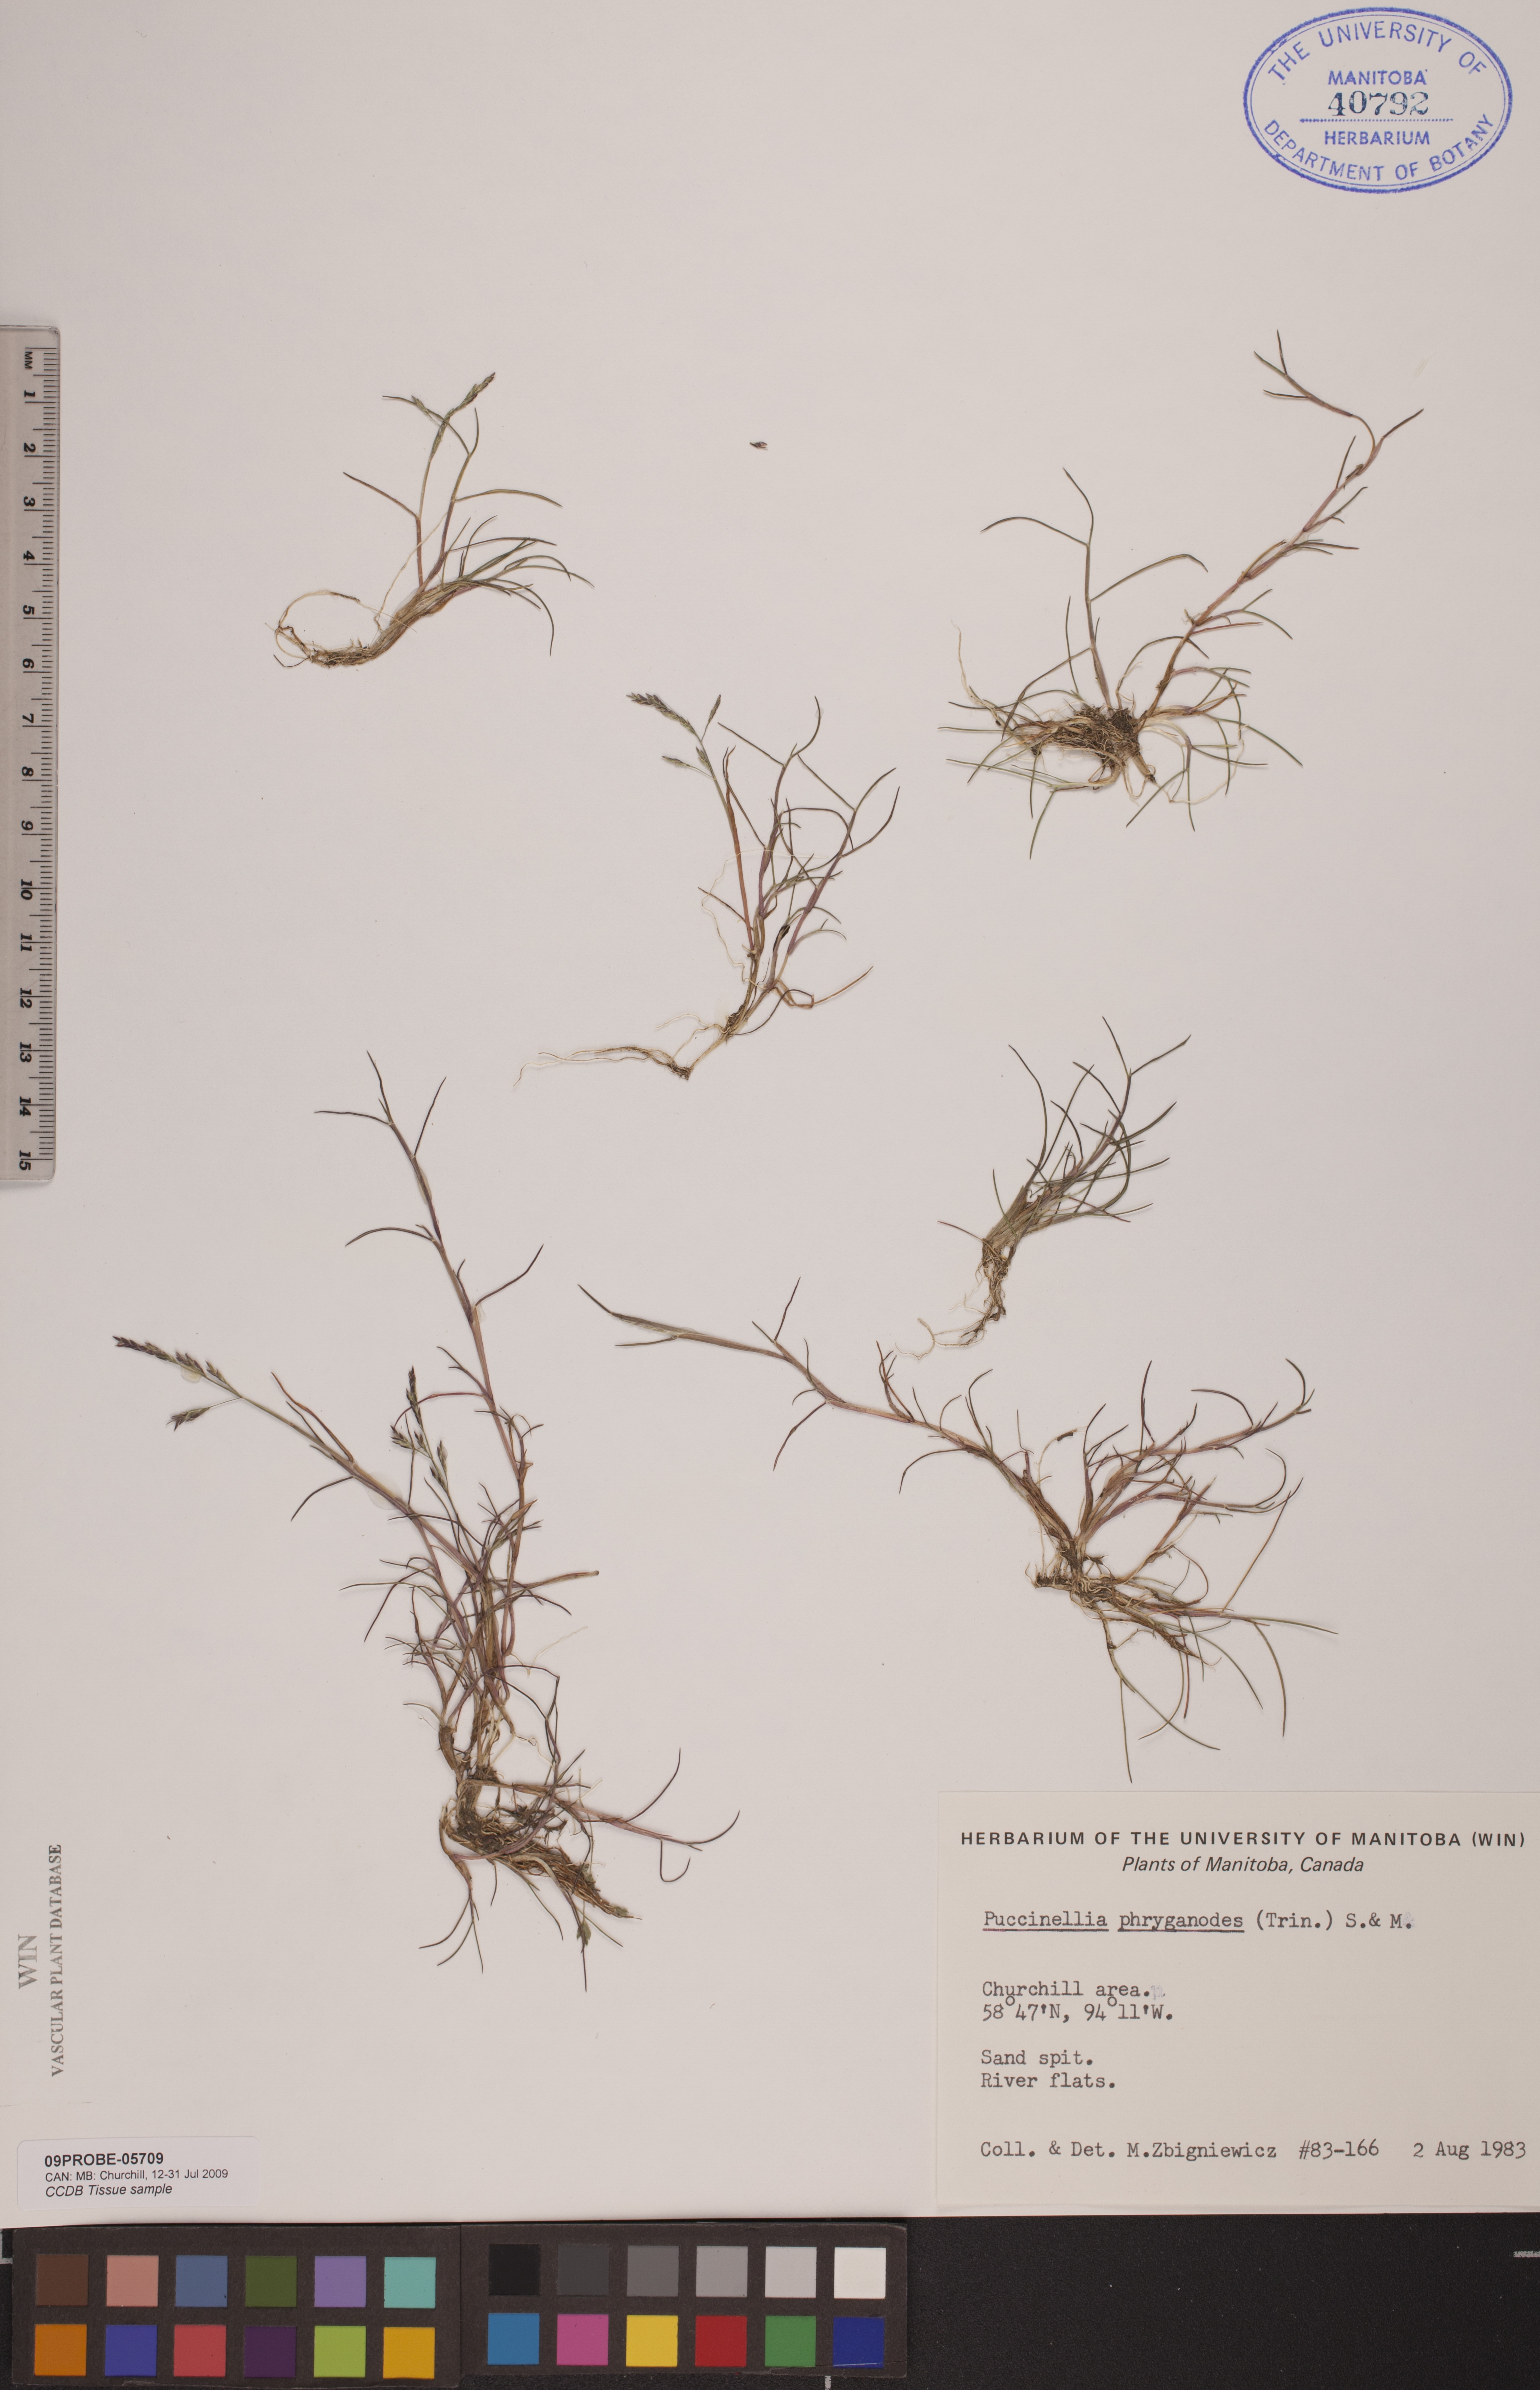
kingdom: Plantae
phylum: Tracheophyta
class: Liliopsida
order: Poales
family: Poaceae
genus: Puccinellia
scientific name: Puccinellia phryganodes
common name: Creeping alkaligrass
